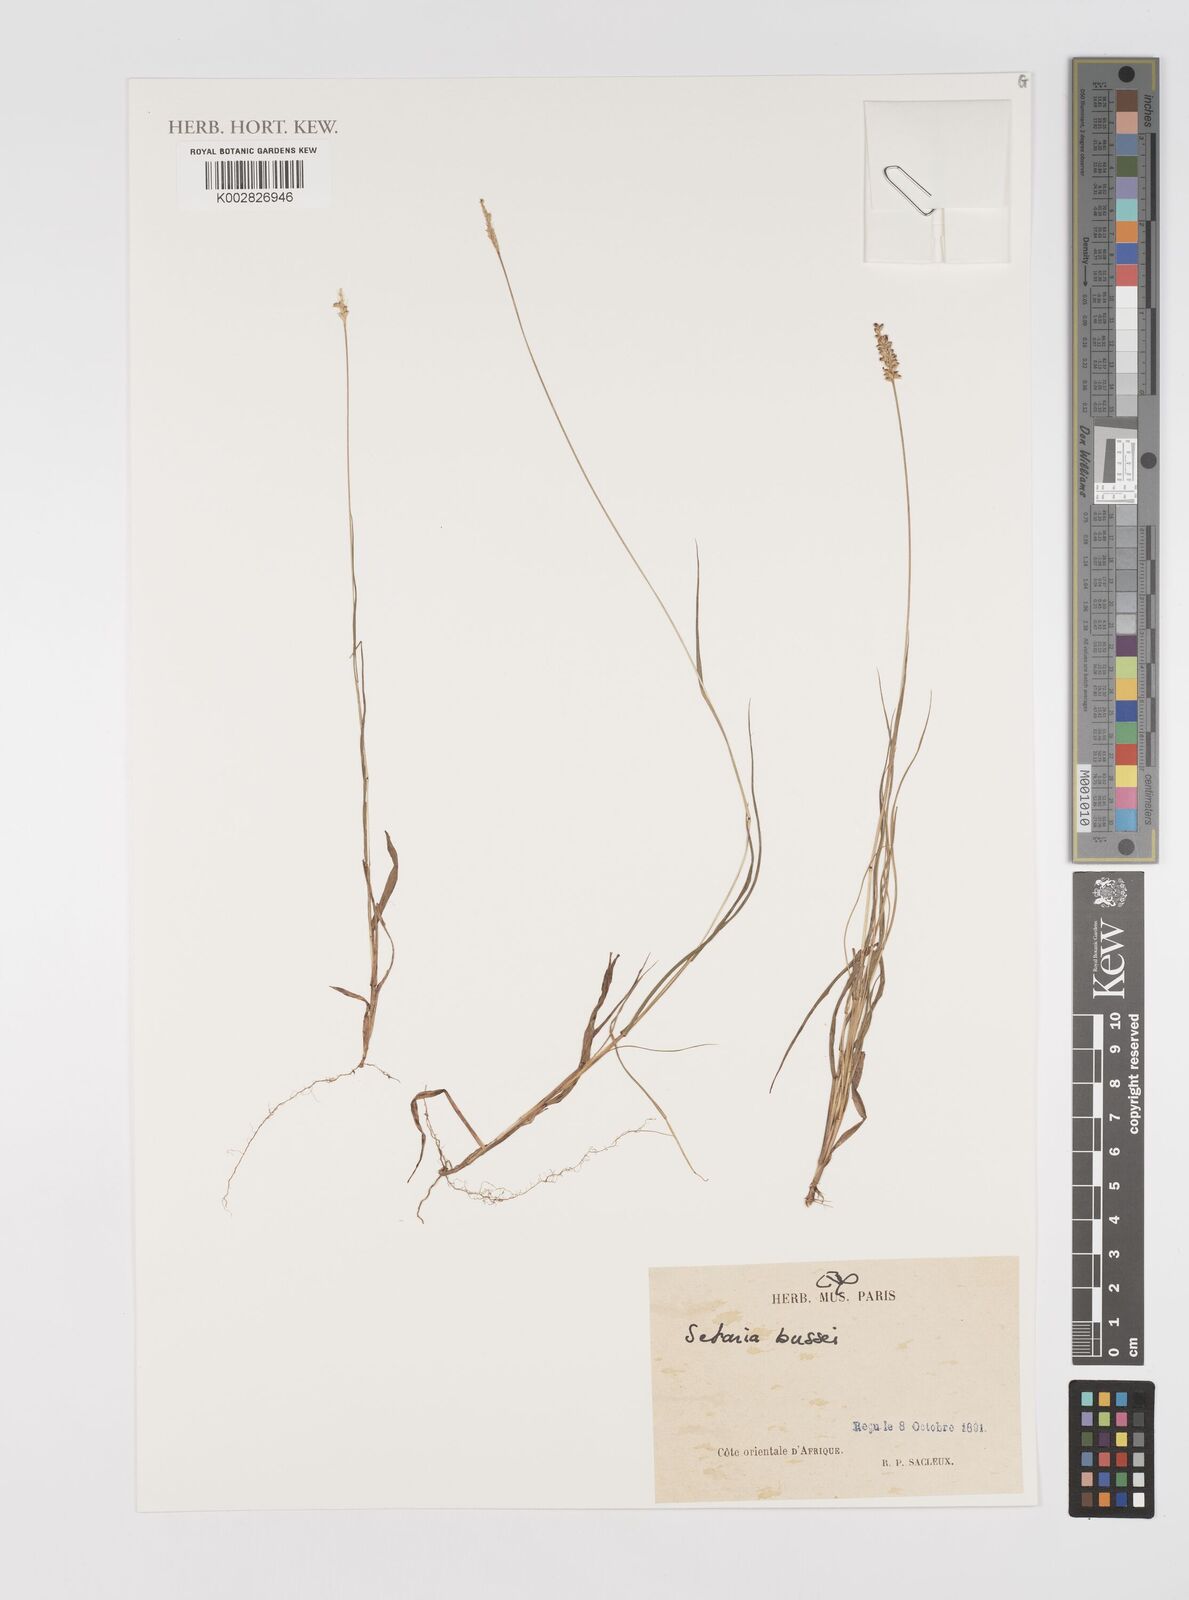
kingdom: Plantae
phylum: Tracheophyta
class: Liliopsida
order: Poales
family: Poaceae
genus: Setaria
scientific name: Setaria sphacelata
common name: African bristlegrass
